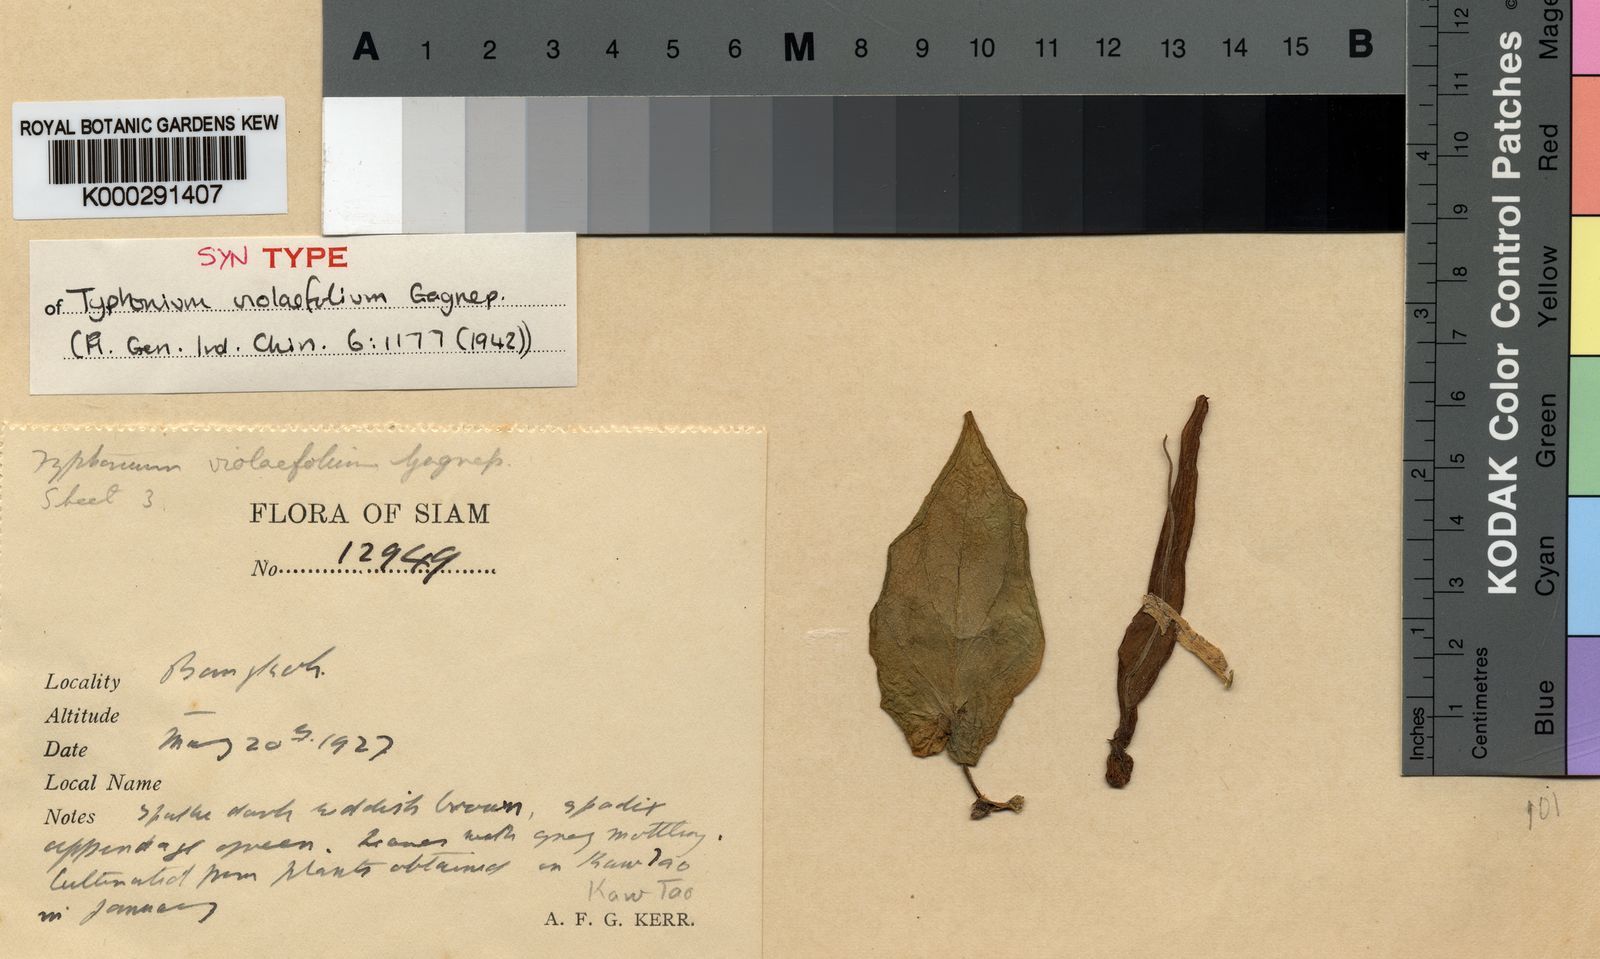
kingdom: Plantae
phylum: Tracheophyta
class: Liliopsida
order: Alismatales
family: Araceae
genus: Typhonium
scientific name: Typhonium violifolium
